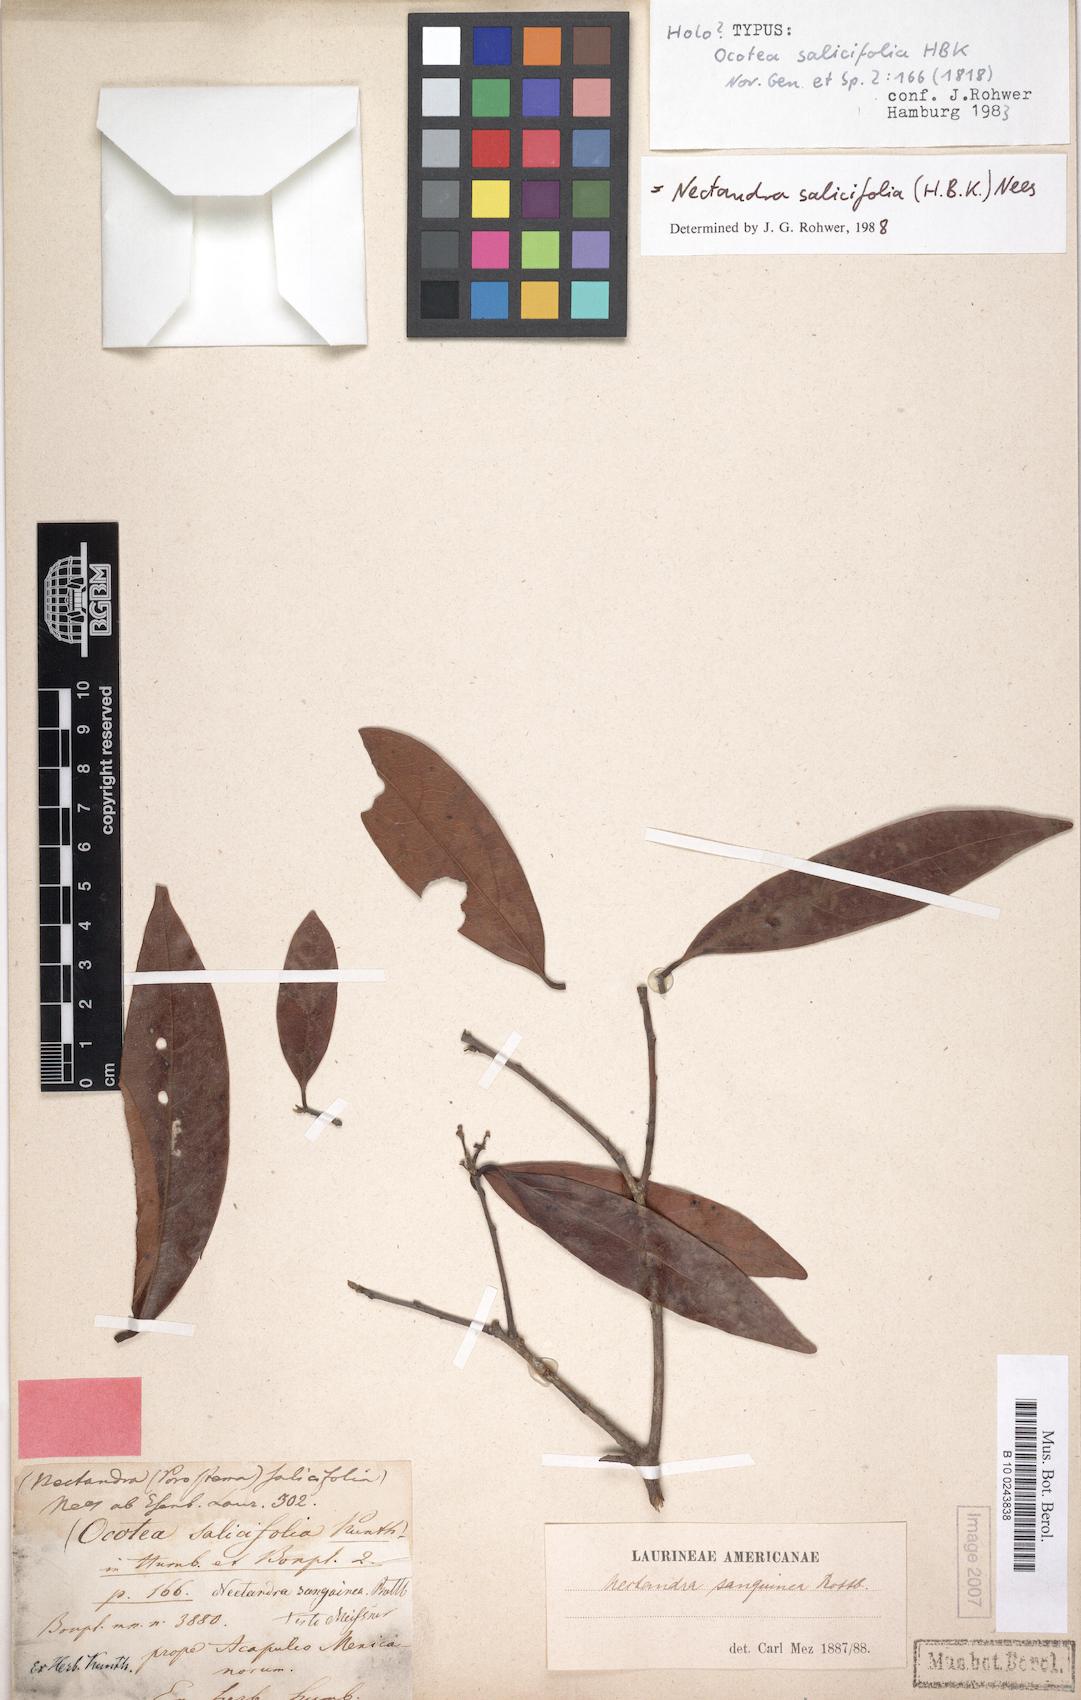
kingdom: Plantae
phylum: Tracheophyta
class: Magnoliopsida
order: Laurales
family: Lauraceae
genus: Damburneya
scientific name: Damburneya salicifolia
